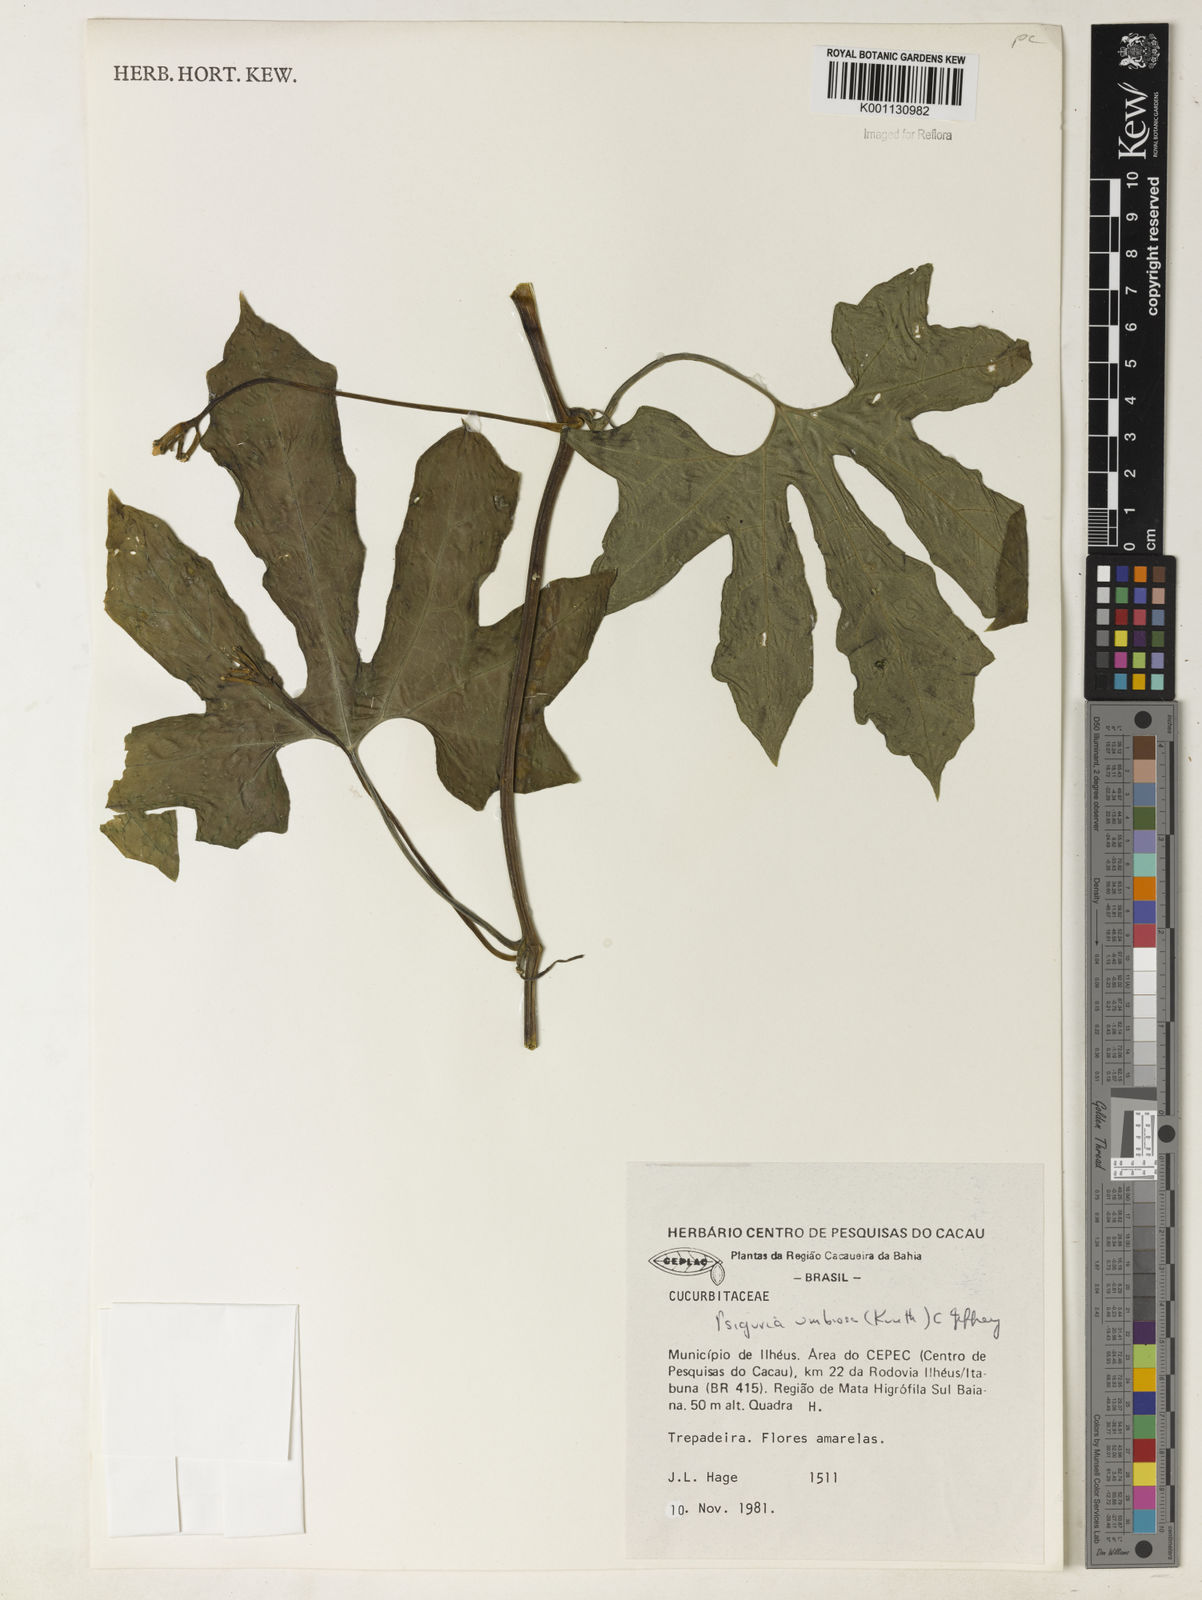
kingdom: Plantae
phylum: Tracheophyta
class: Magnoliopsida
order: Cucurbitales
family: Cucurbitaceae
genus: Psiguria
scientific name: Psiguria umbrosa
